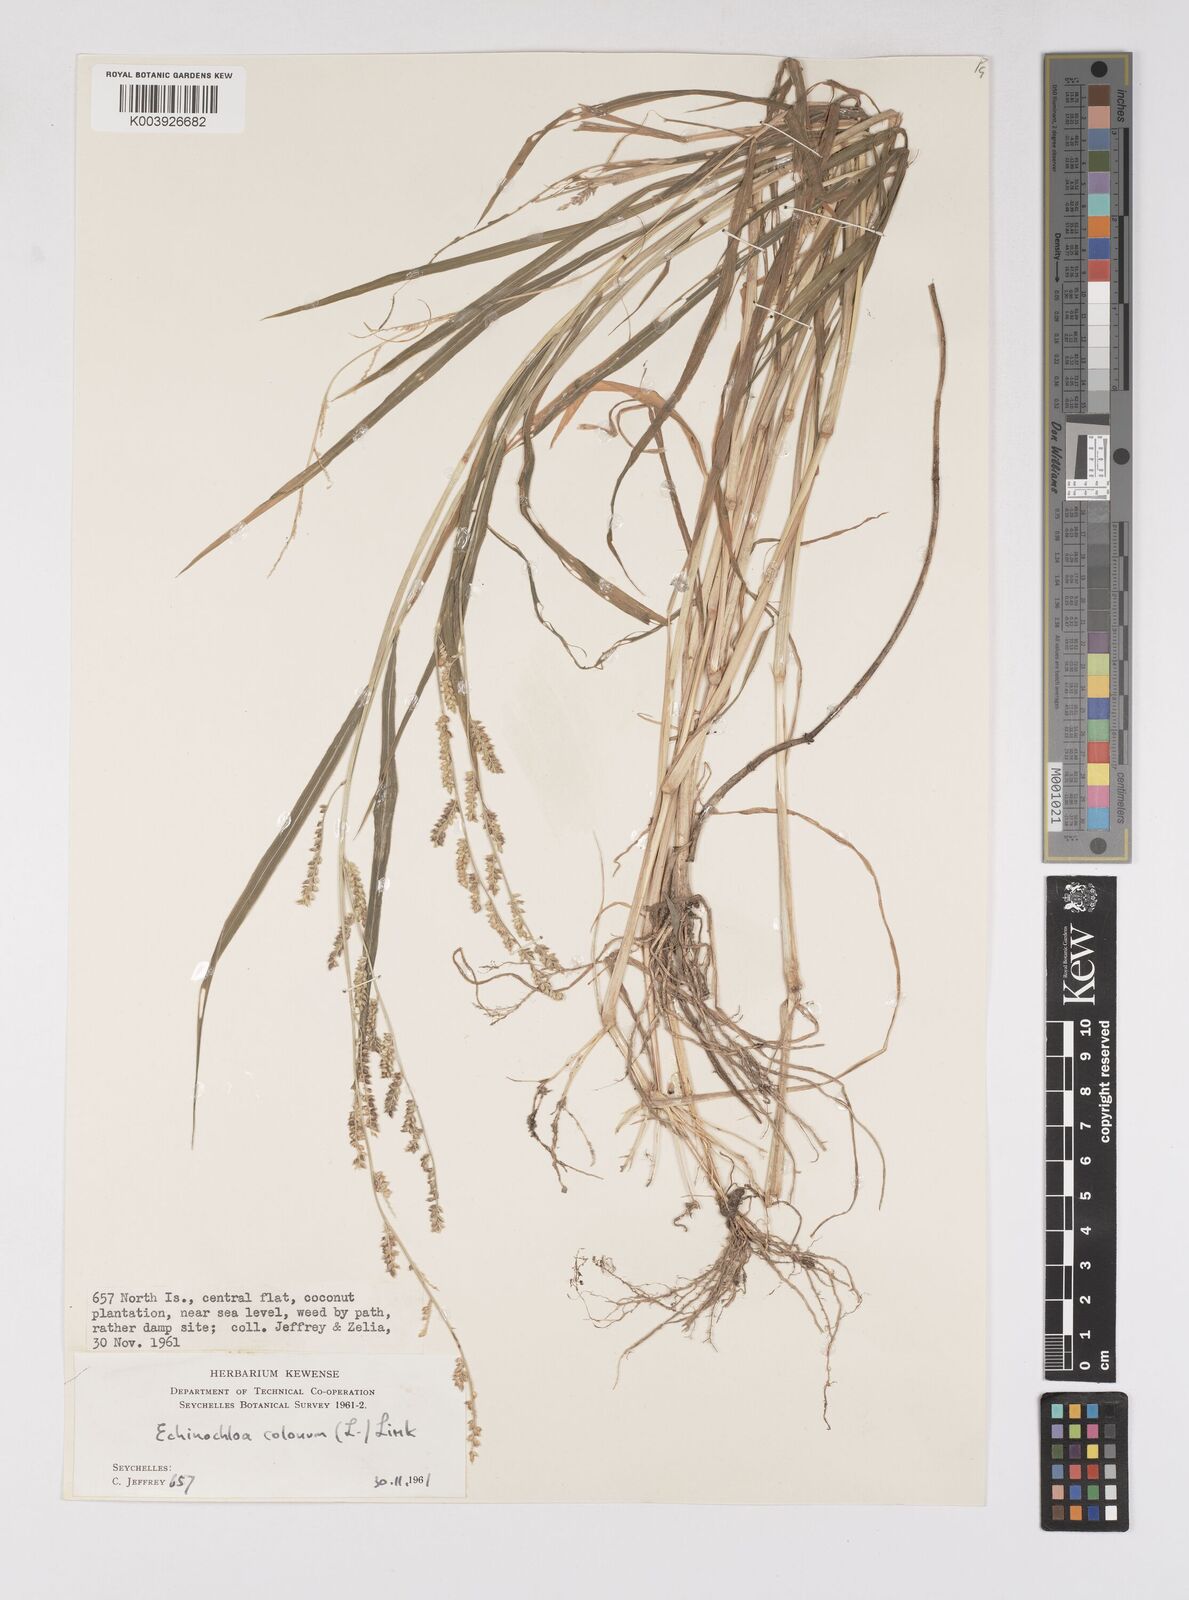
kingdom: Plantae
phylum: Tracheophyta
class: Liliopsida
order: Poales
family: Poaceae
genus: Echinochloa
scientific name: Echinochloa colonum
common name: Jungle rice
